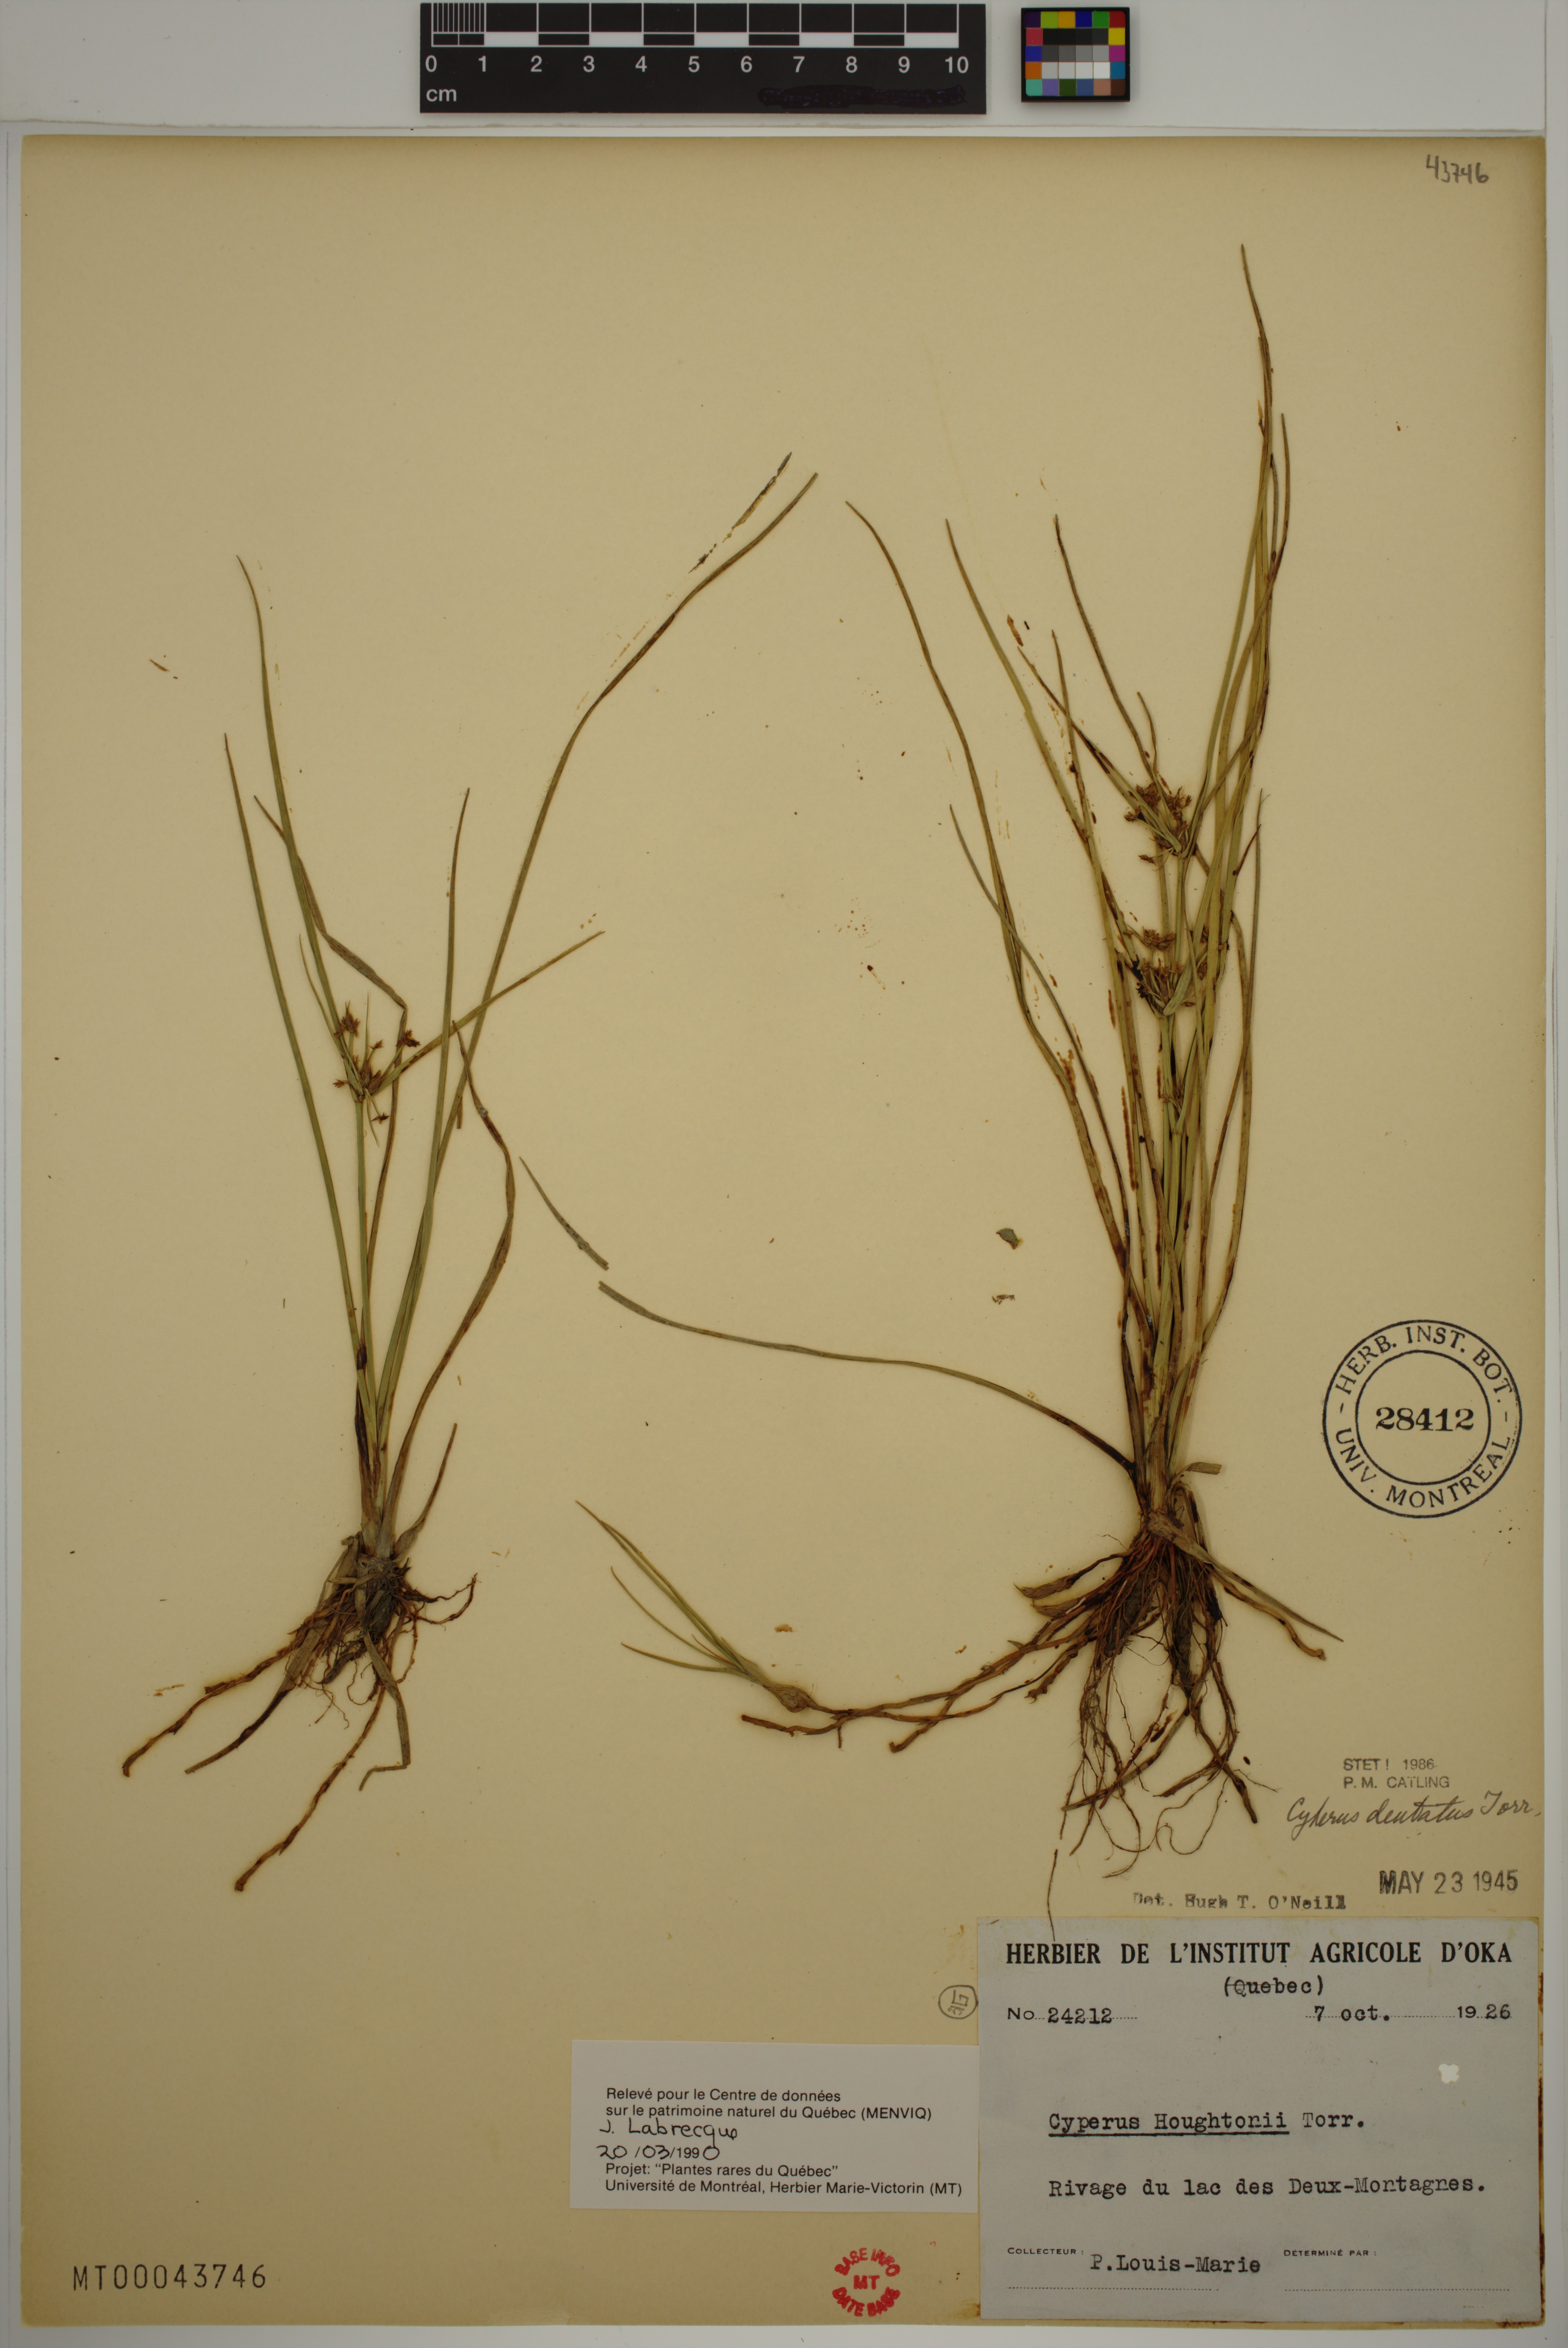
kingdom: Plantae
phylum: Tracheophyta
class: Liliopsida
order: Poales
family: Cyperaceae
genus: Cyperus
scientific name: Cyperus dentatus
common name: Dentate umbrella sedge
